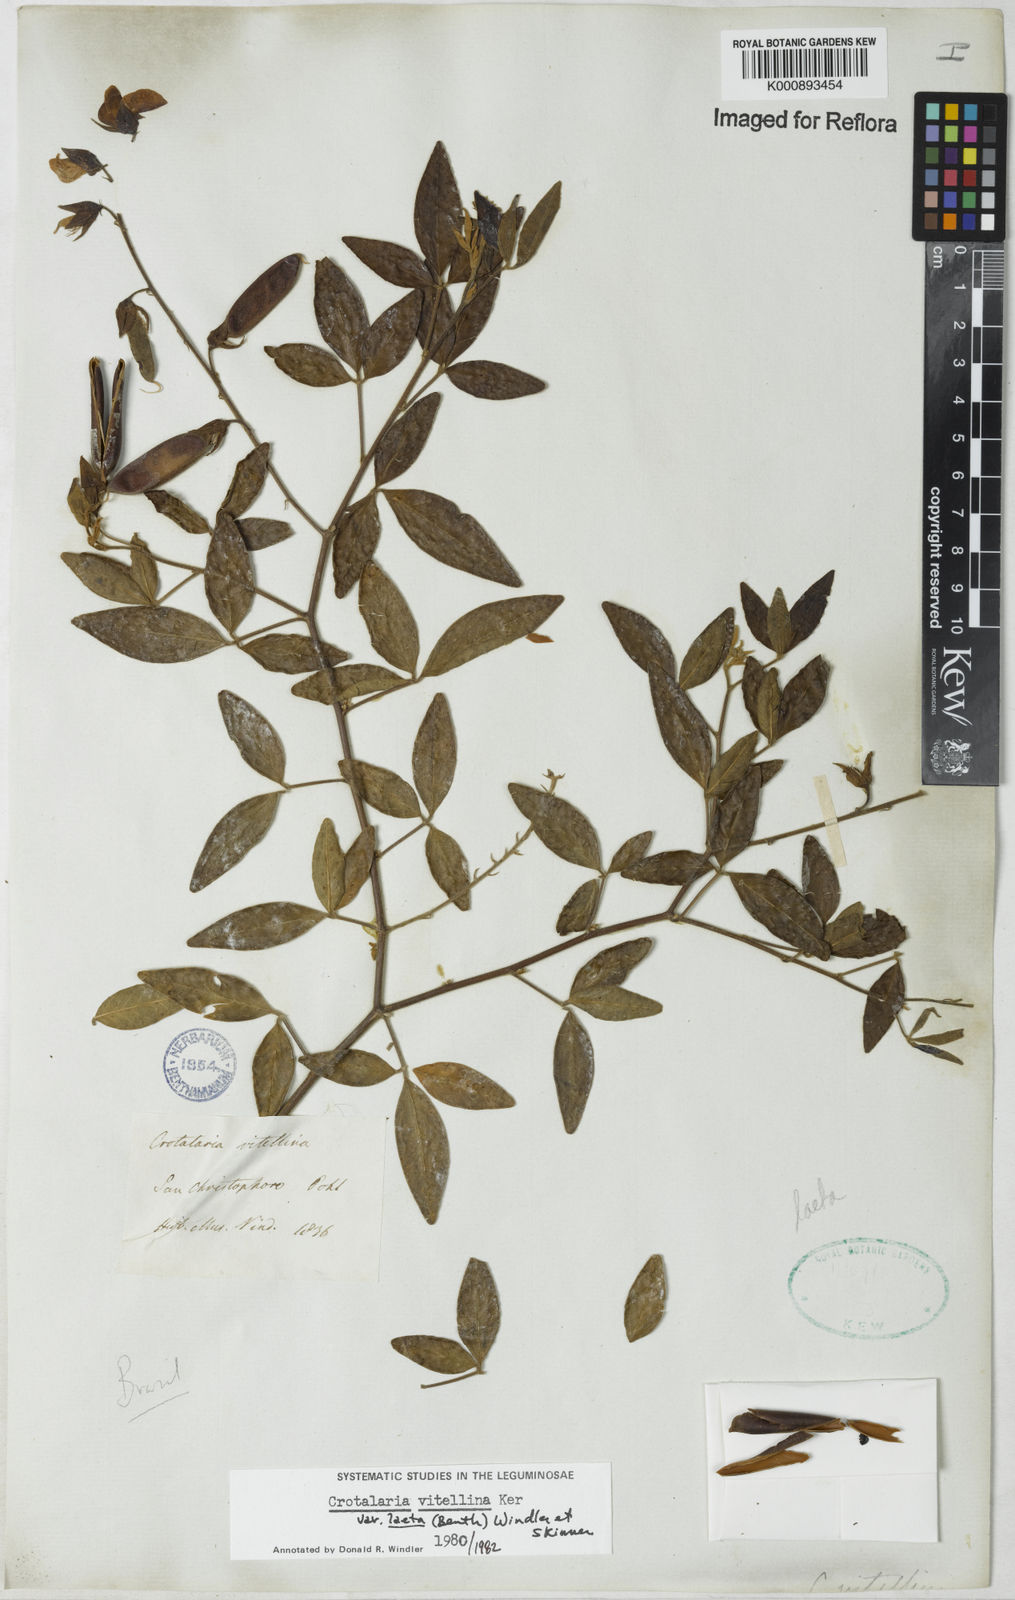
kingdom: Plantae
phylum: Tracheophyta
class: Magnoliopsida
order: Fabales
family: Fabaceae
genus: Crotalaria
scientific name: Crotalaria laeta
